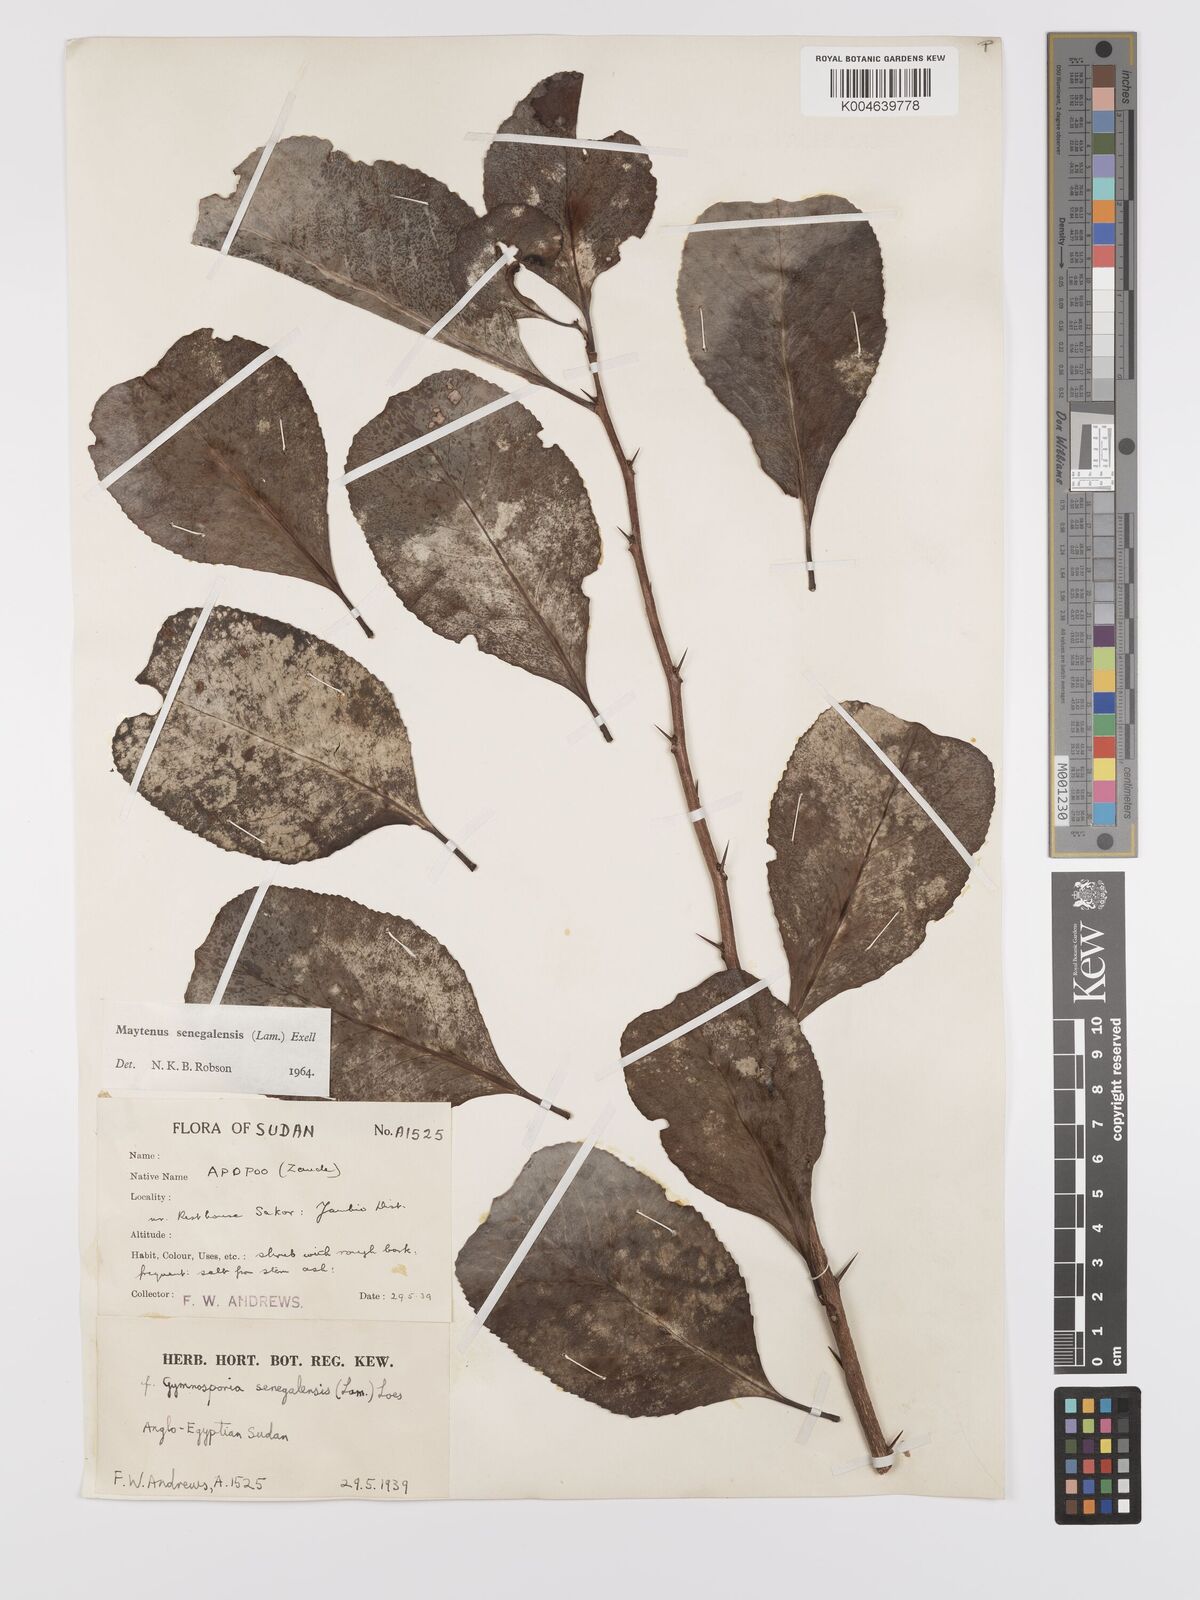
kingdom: Plantae
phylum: Tracheophyta
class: Magnoliopsida
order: Celastrales
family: Celastraceae
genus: Gymnosporia
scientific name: Gymnosporia senegalensis
